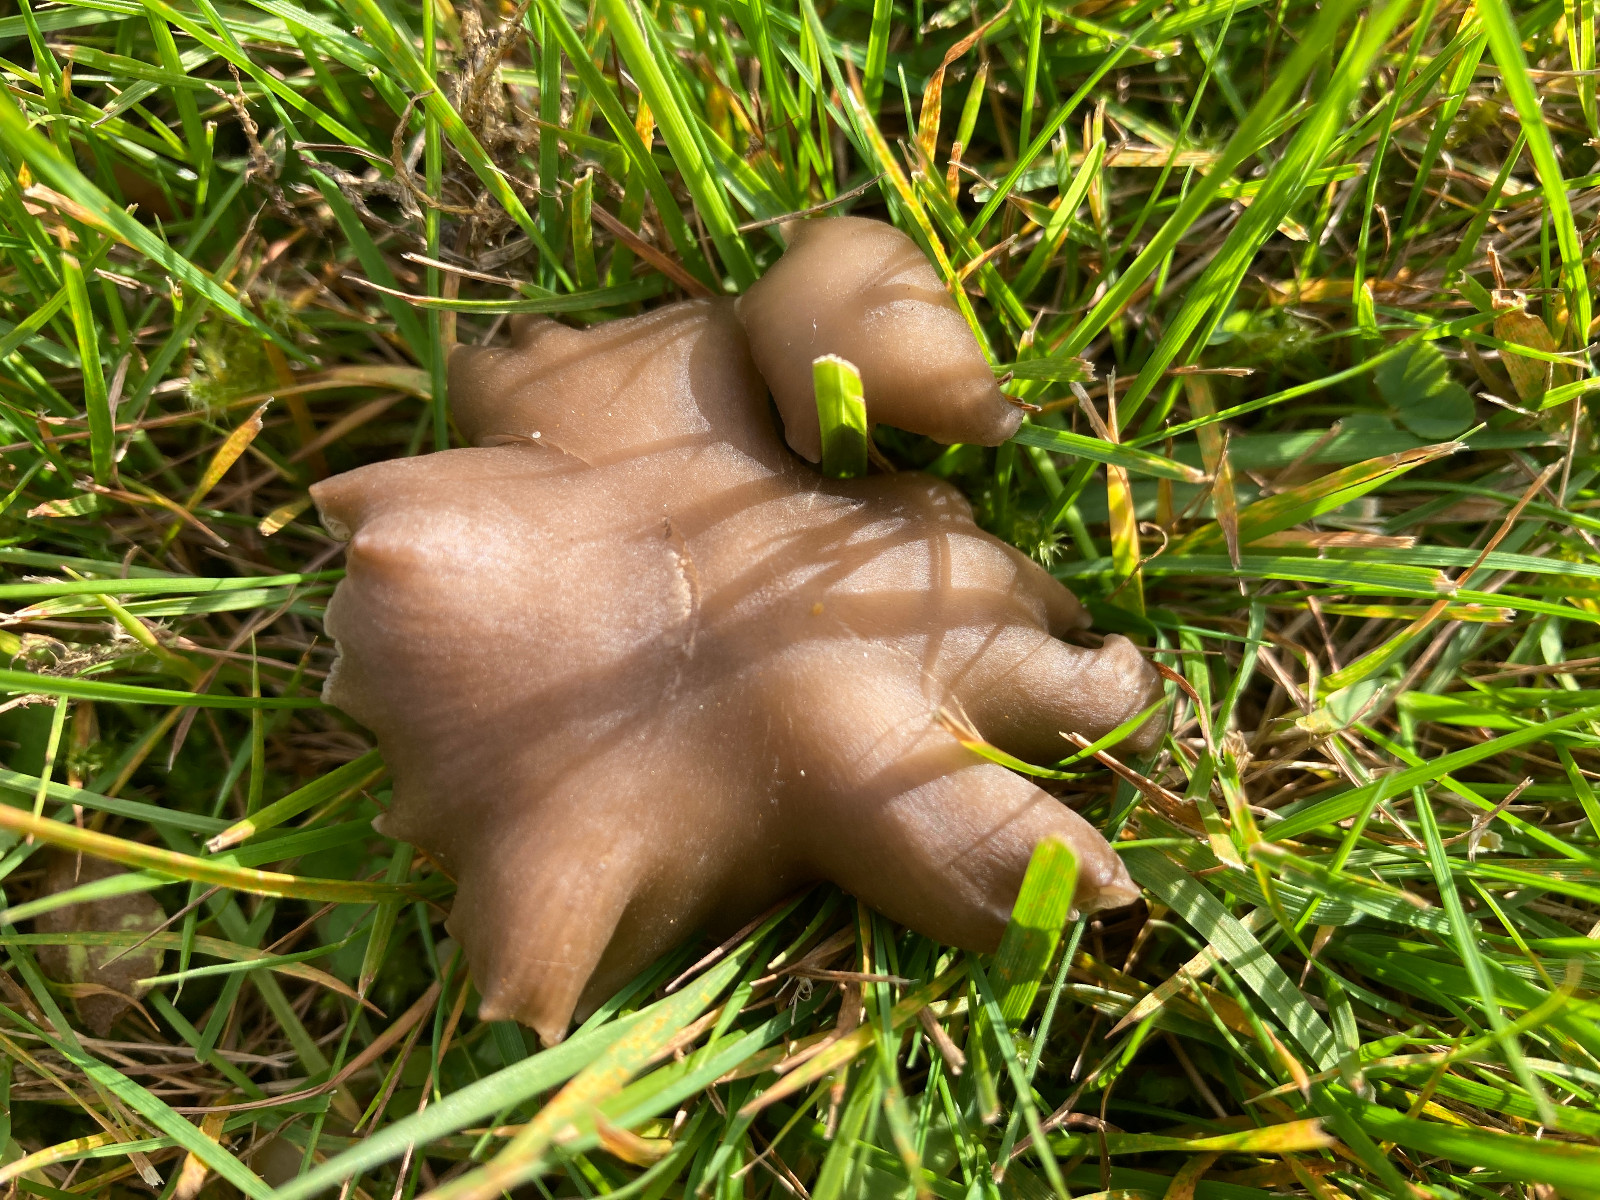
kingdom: Fungi
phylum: Basidiomycota
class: Agaricomycetes
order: Agaricales
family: Entolomataceae
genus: Entoloma
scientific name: Entoloma sericeum
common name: silkeglinsende rødblad
